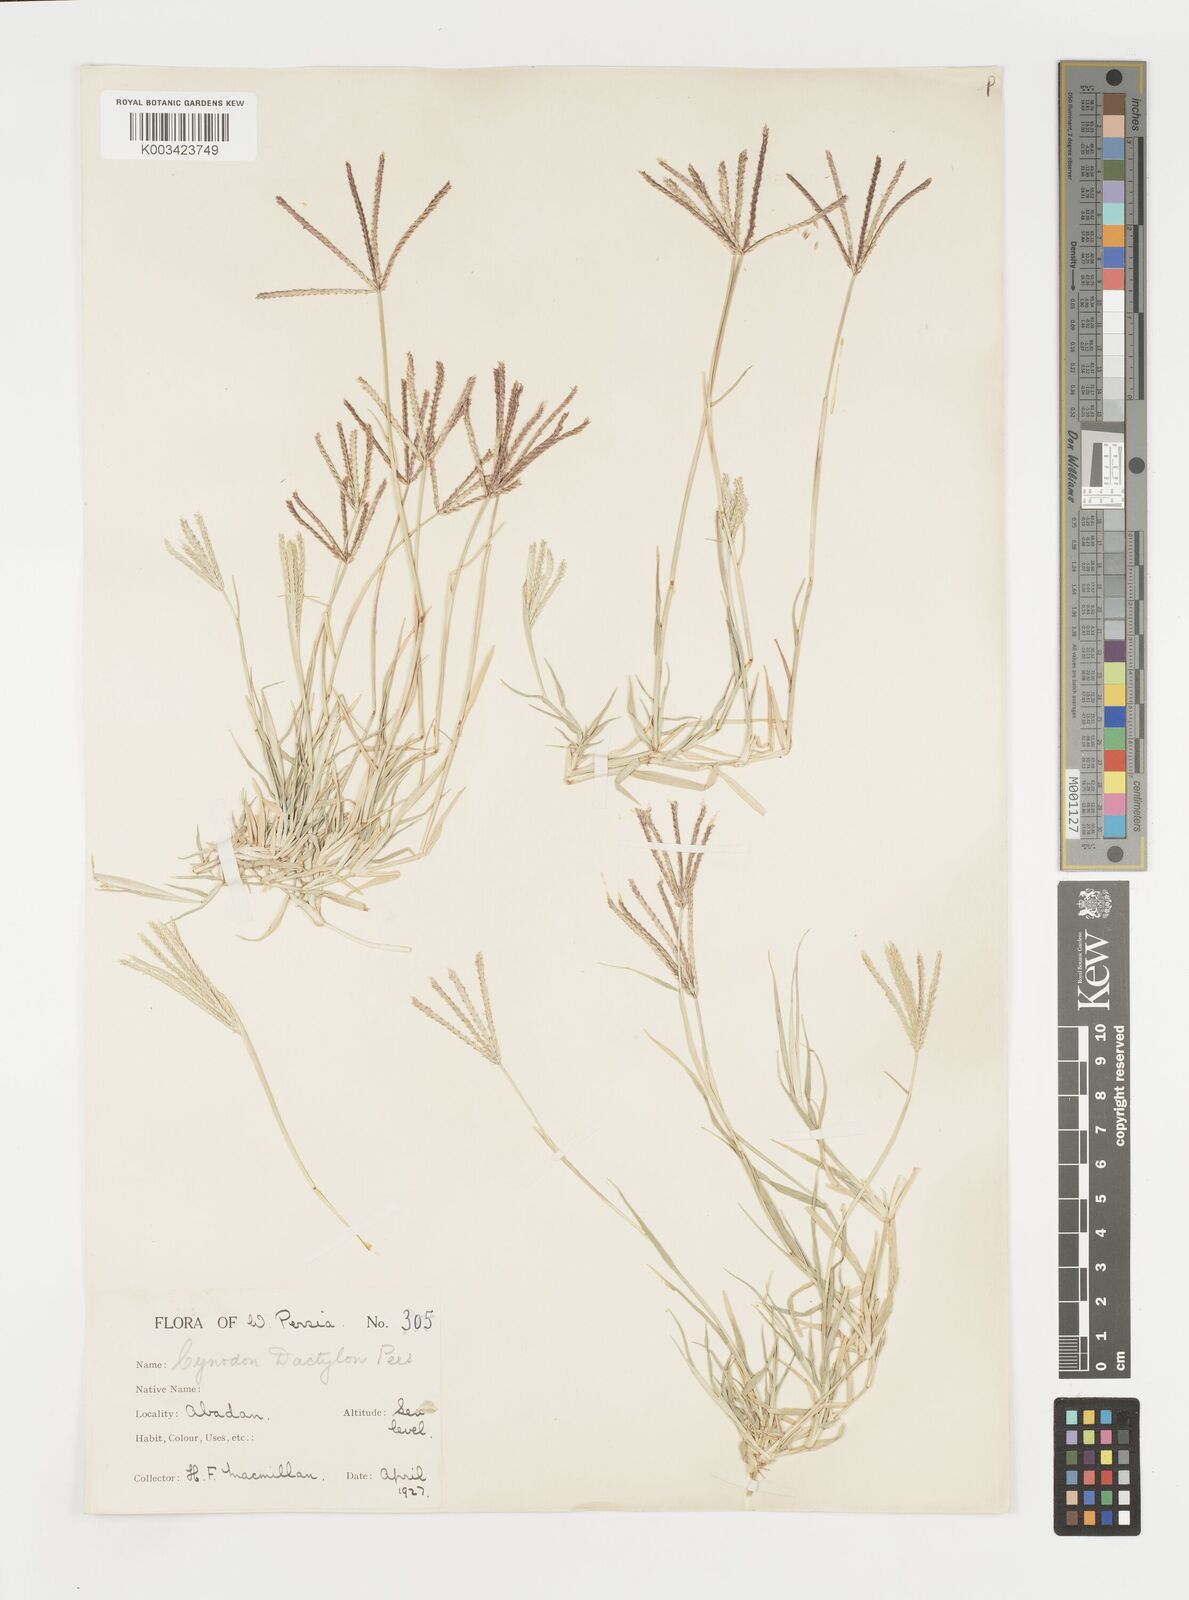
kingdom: Plantae
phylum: Tracheophyta
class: Liliopsida
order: Poales
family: Poaceae
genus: Cynodon
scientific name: Cynodon dactylon
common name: Bermuda grass
